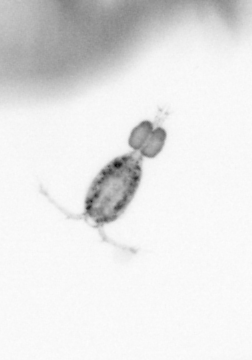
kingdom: Animalia
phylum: Arthropoda
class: Copepoda
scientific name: Copepoda
